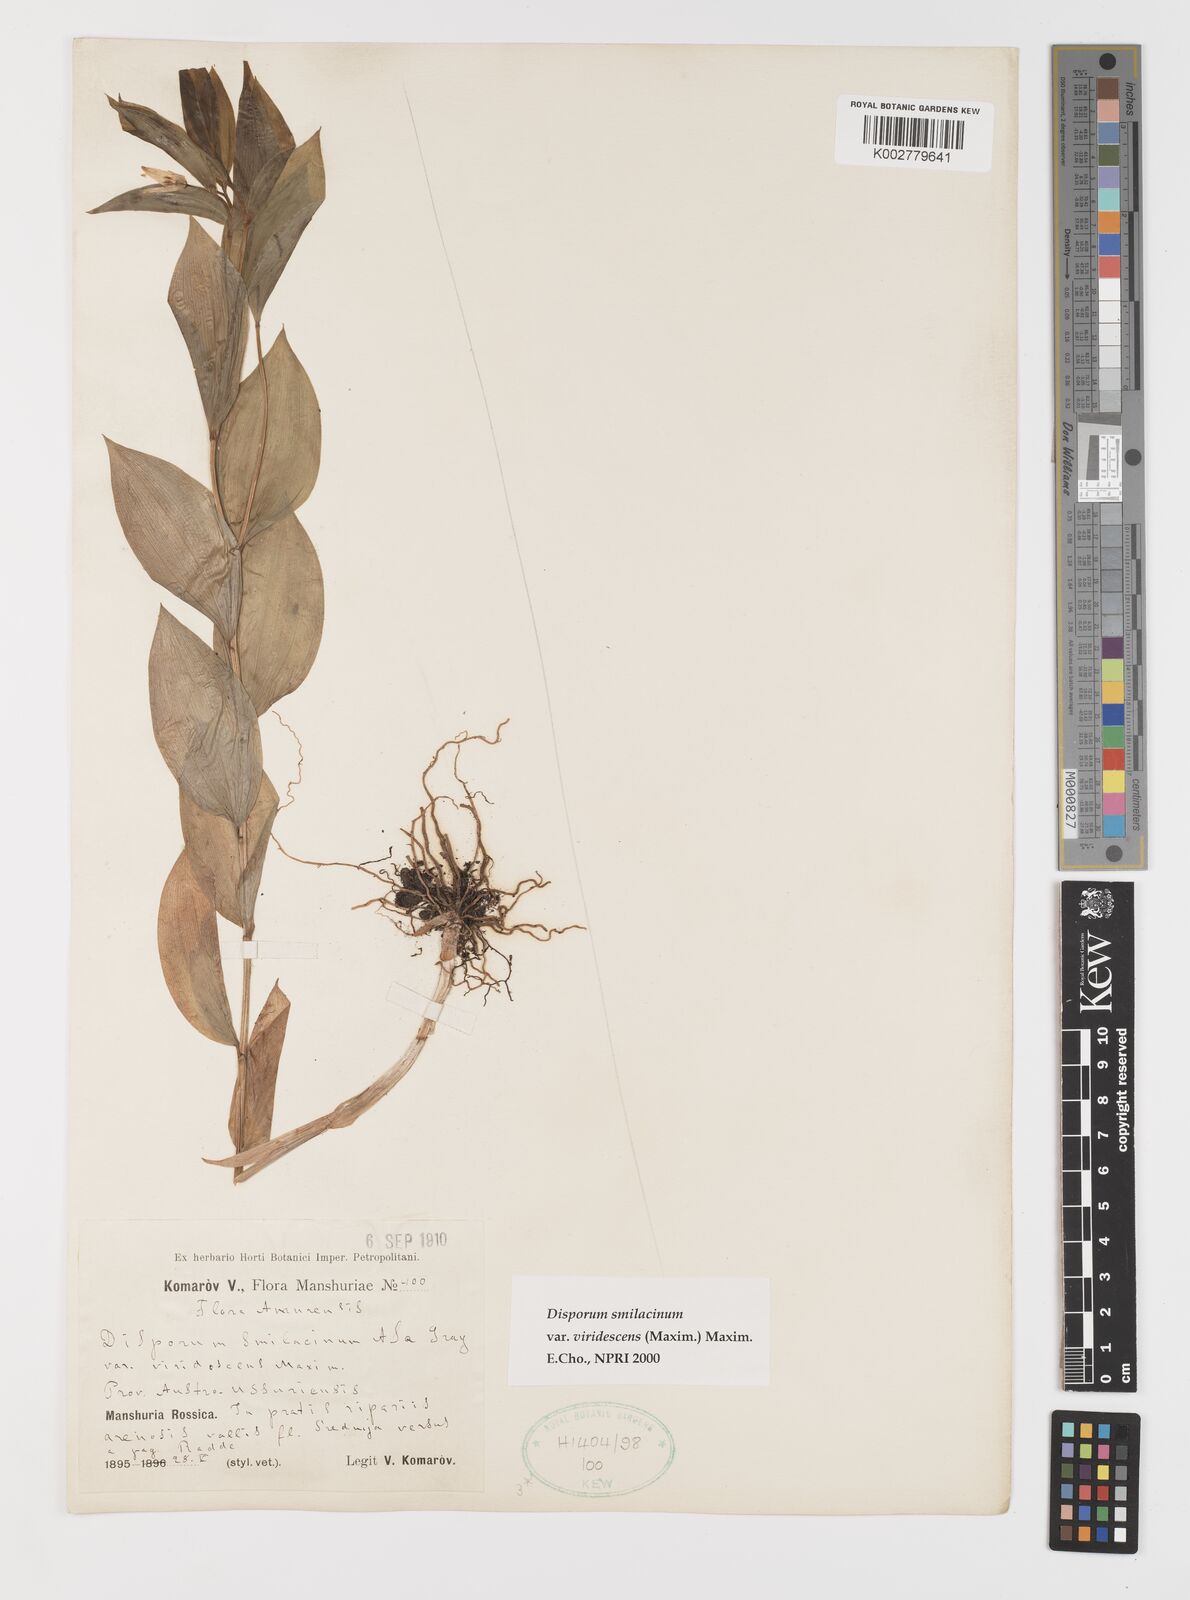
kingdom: Plantae
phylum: Tracheophyta
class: Liliopsida
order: Liliales
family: Colchicaceae
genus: Disporum
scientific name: Disporum viridescens
